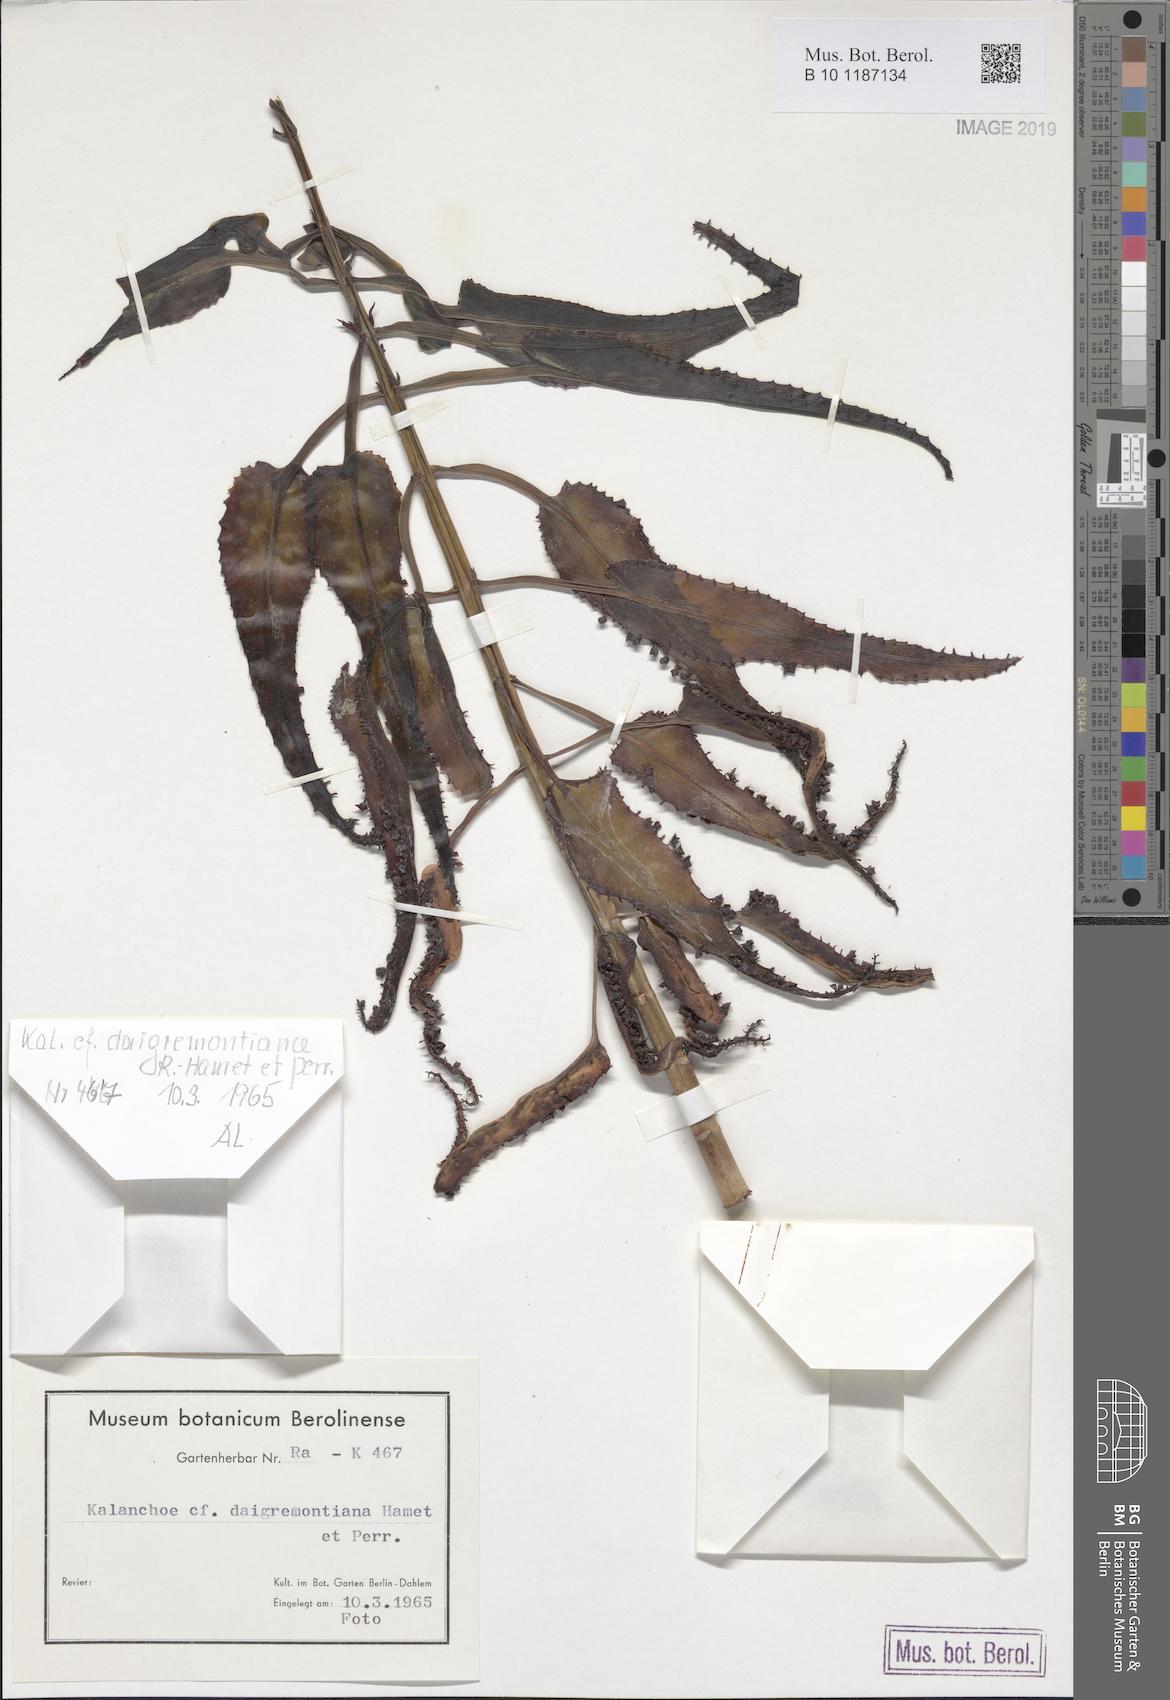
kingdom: Plantae
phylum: Tracheophyta
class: Magnoliopsida
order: Saxifragales
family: Crassulaceae
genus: Kalanchoe
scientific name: Kalanchoe daigremontiana
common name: Devil's backbone
